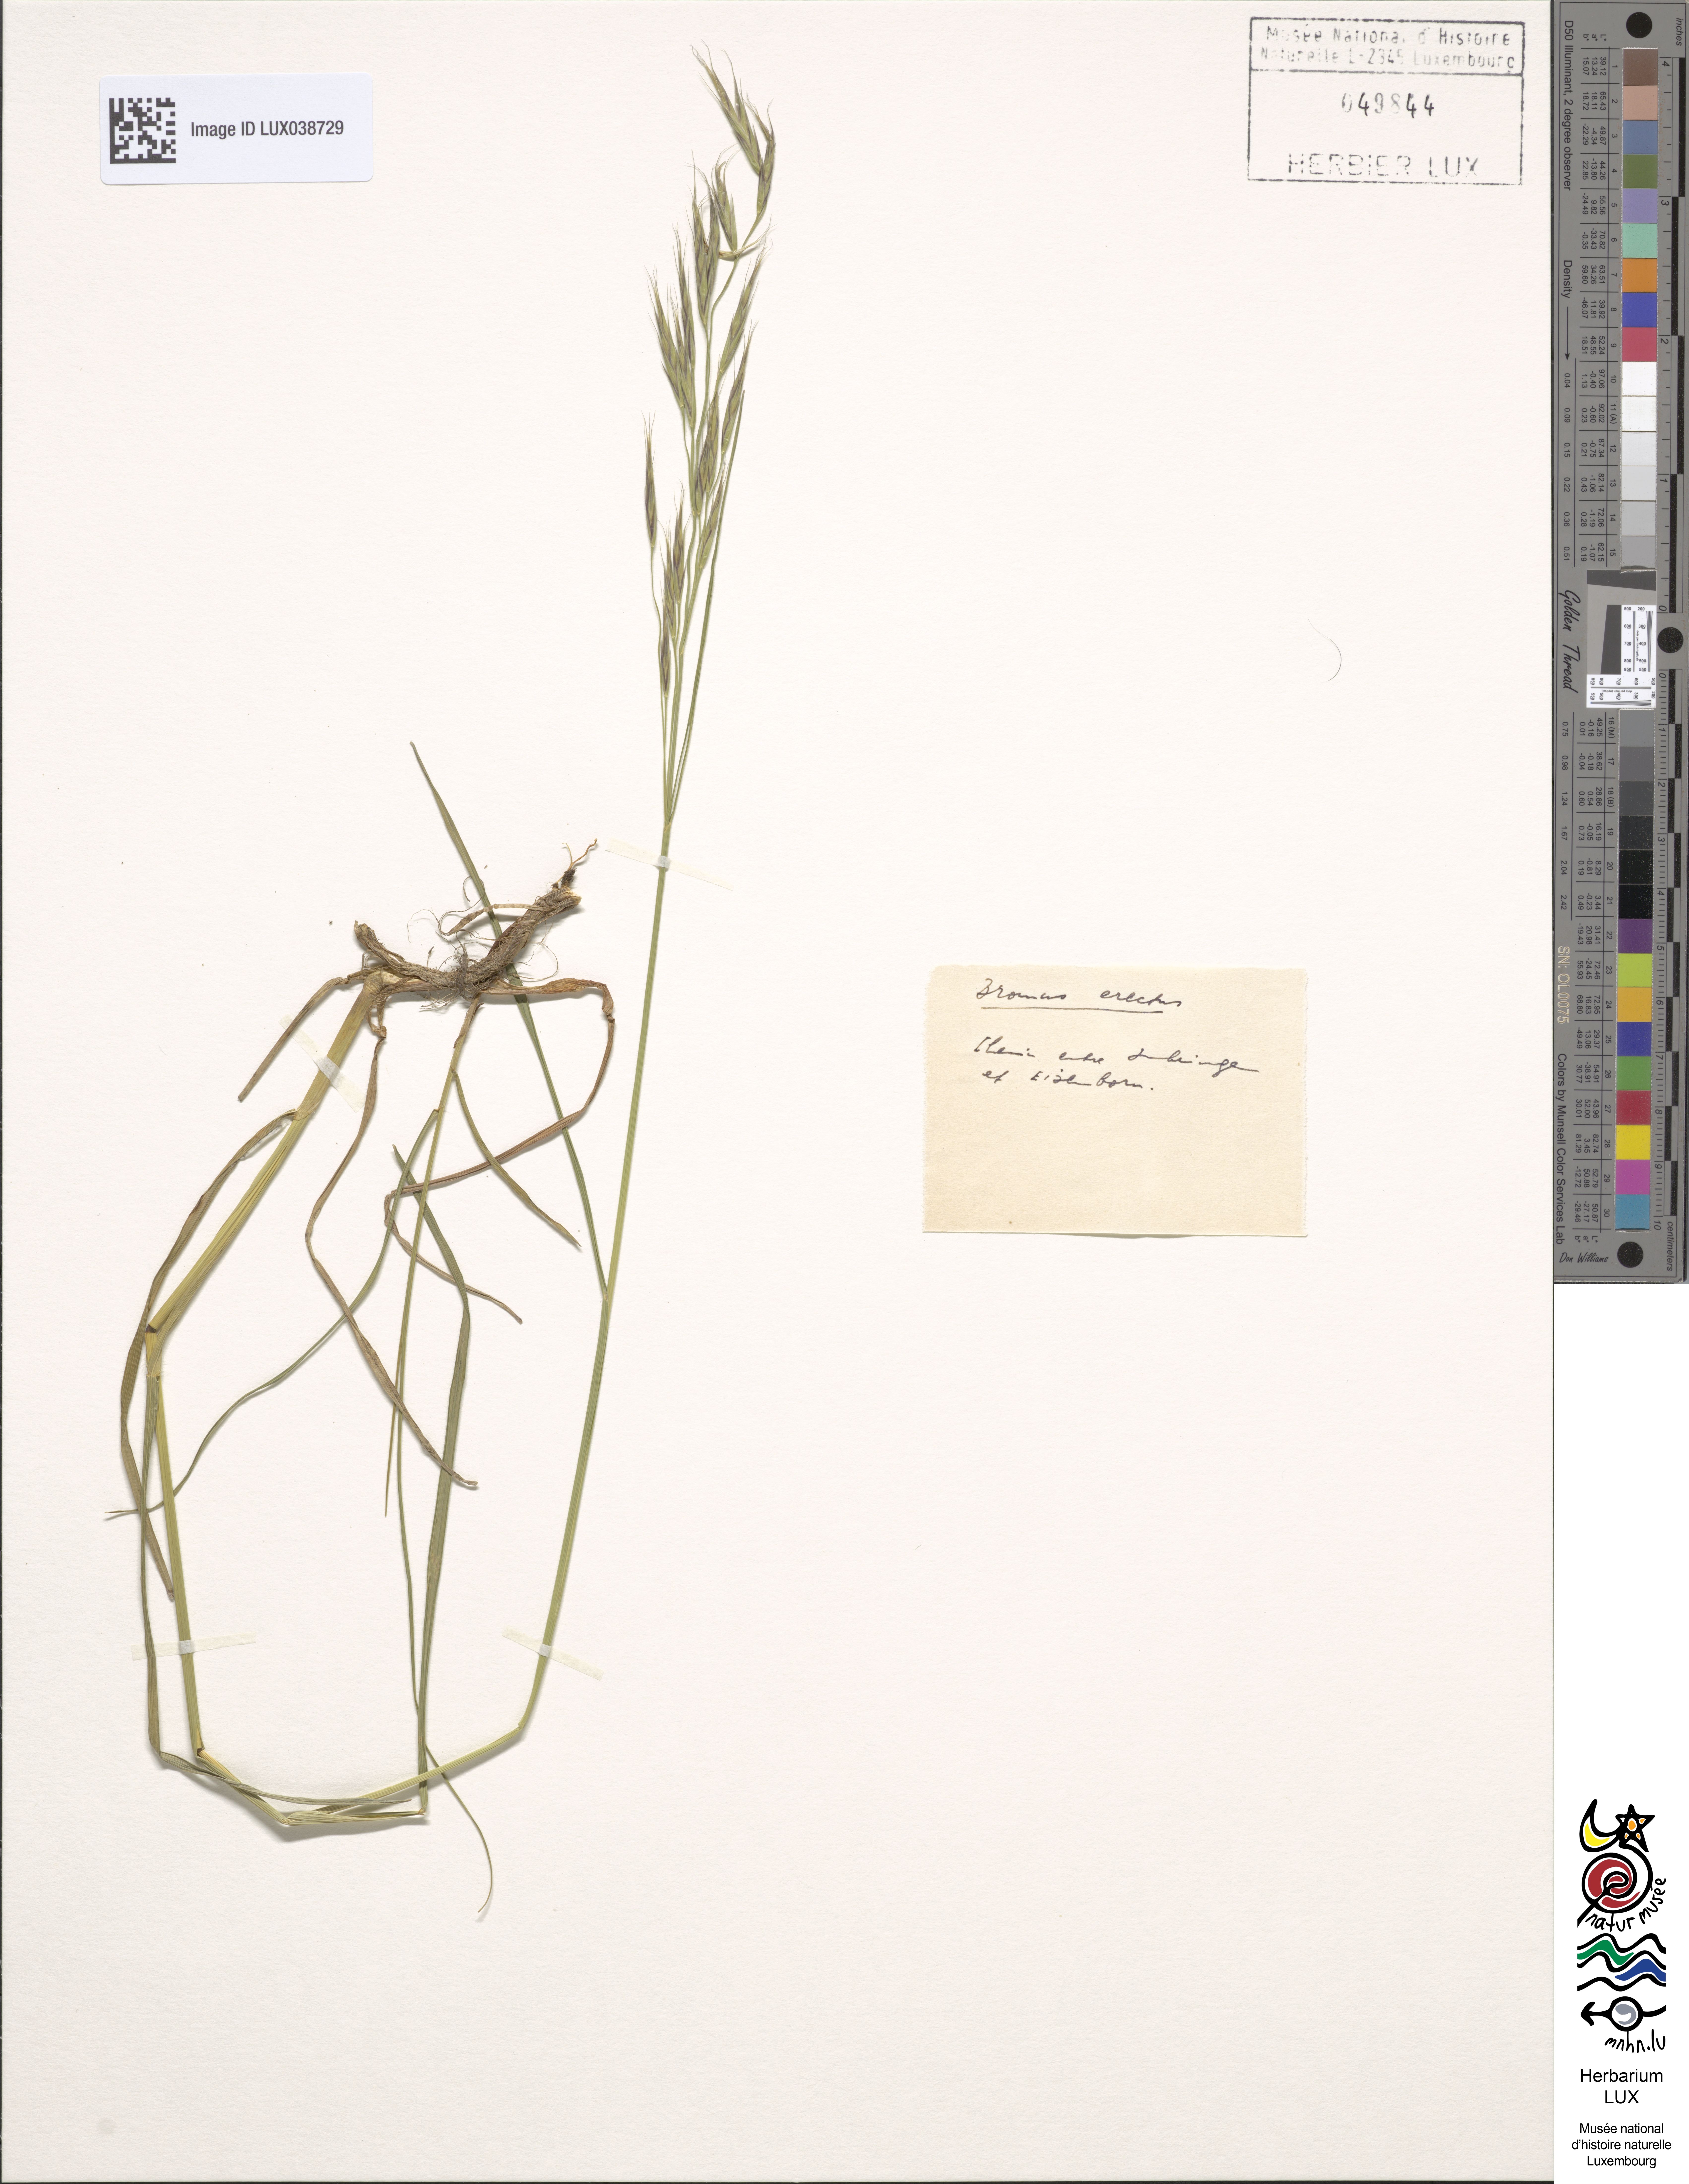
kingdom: Plantae
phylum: Tracheophyta
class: Liliopsida
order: Poales
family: Poaceae
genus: Bromus
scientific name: Bromus erectus
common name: Erect brome
